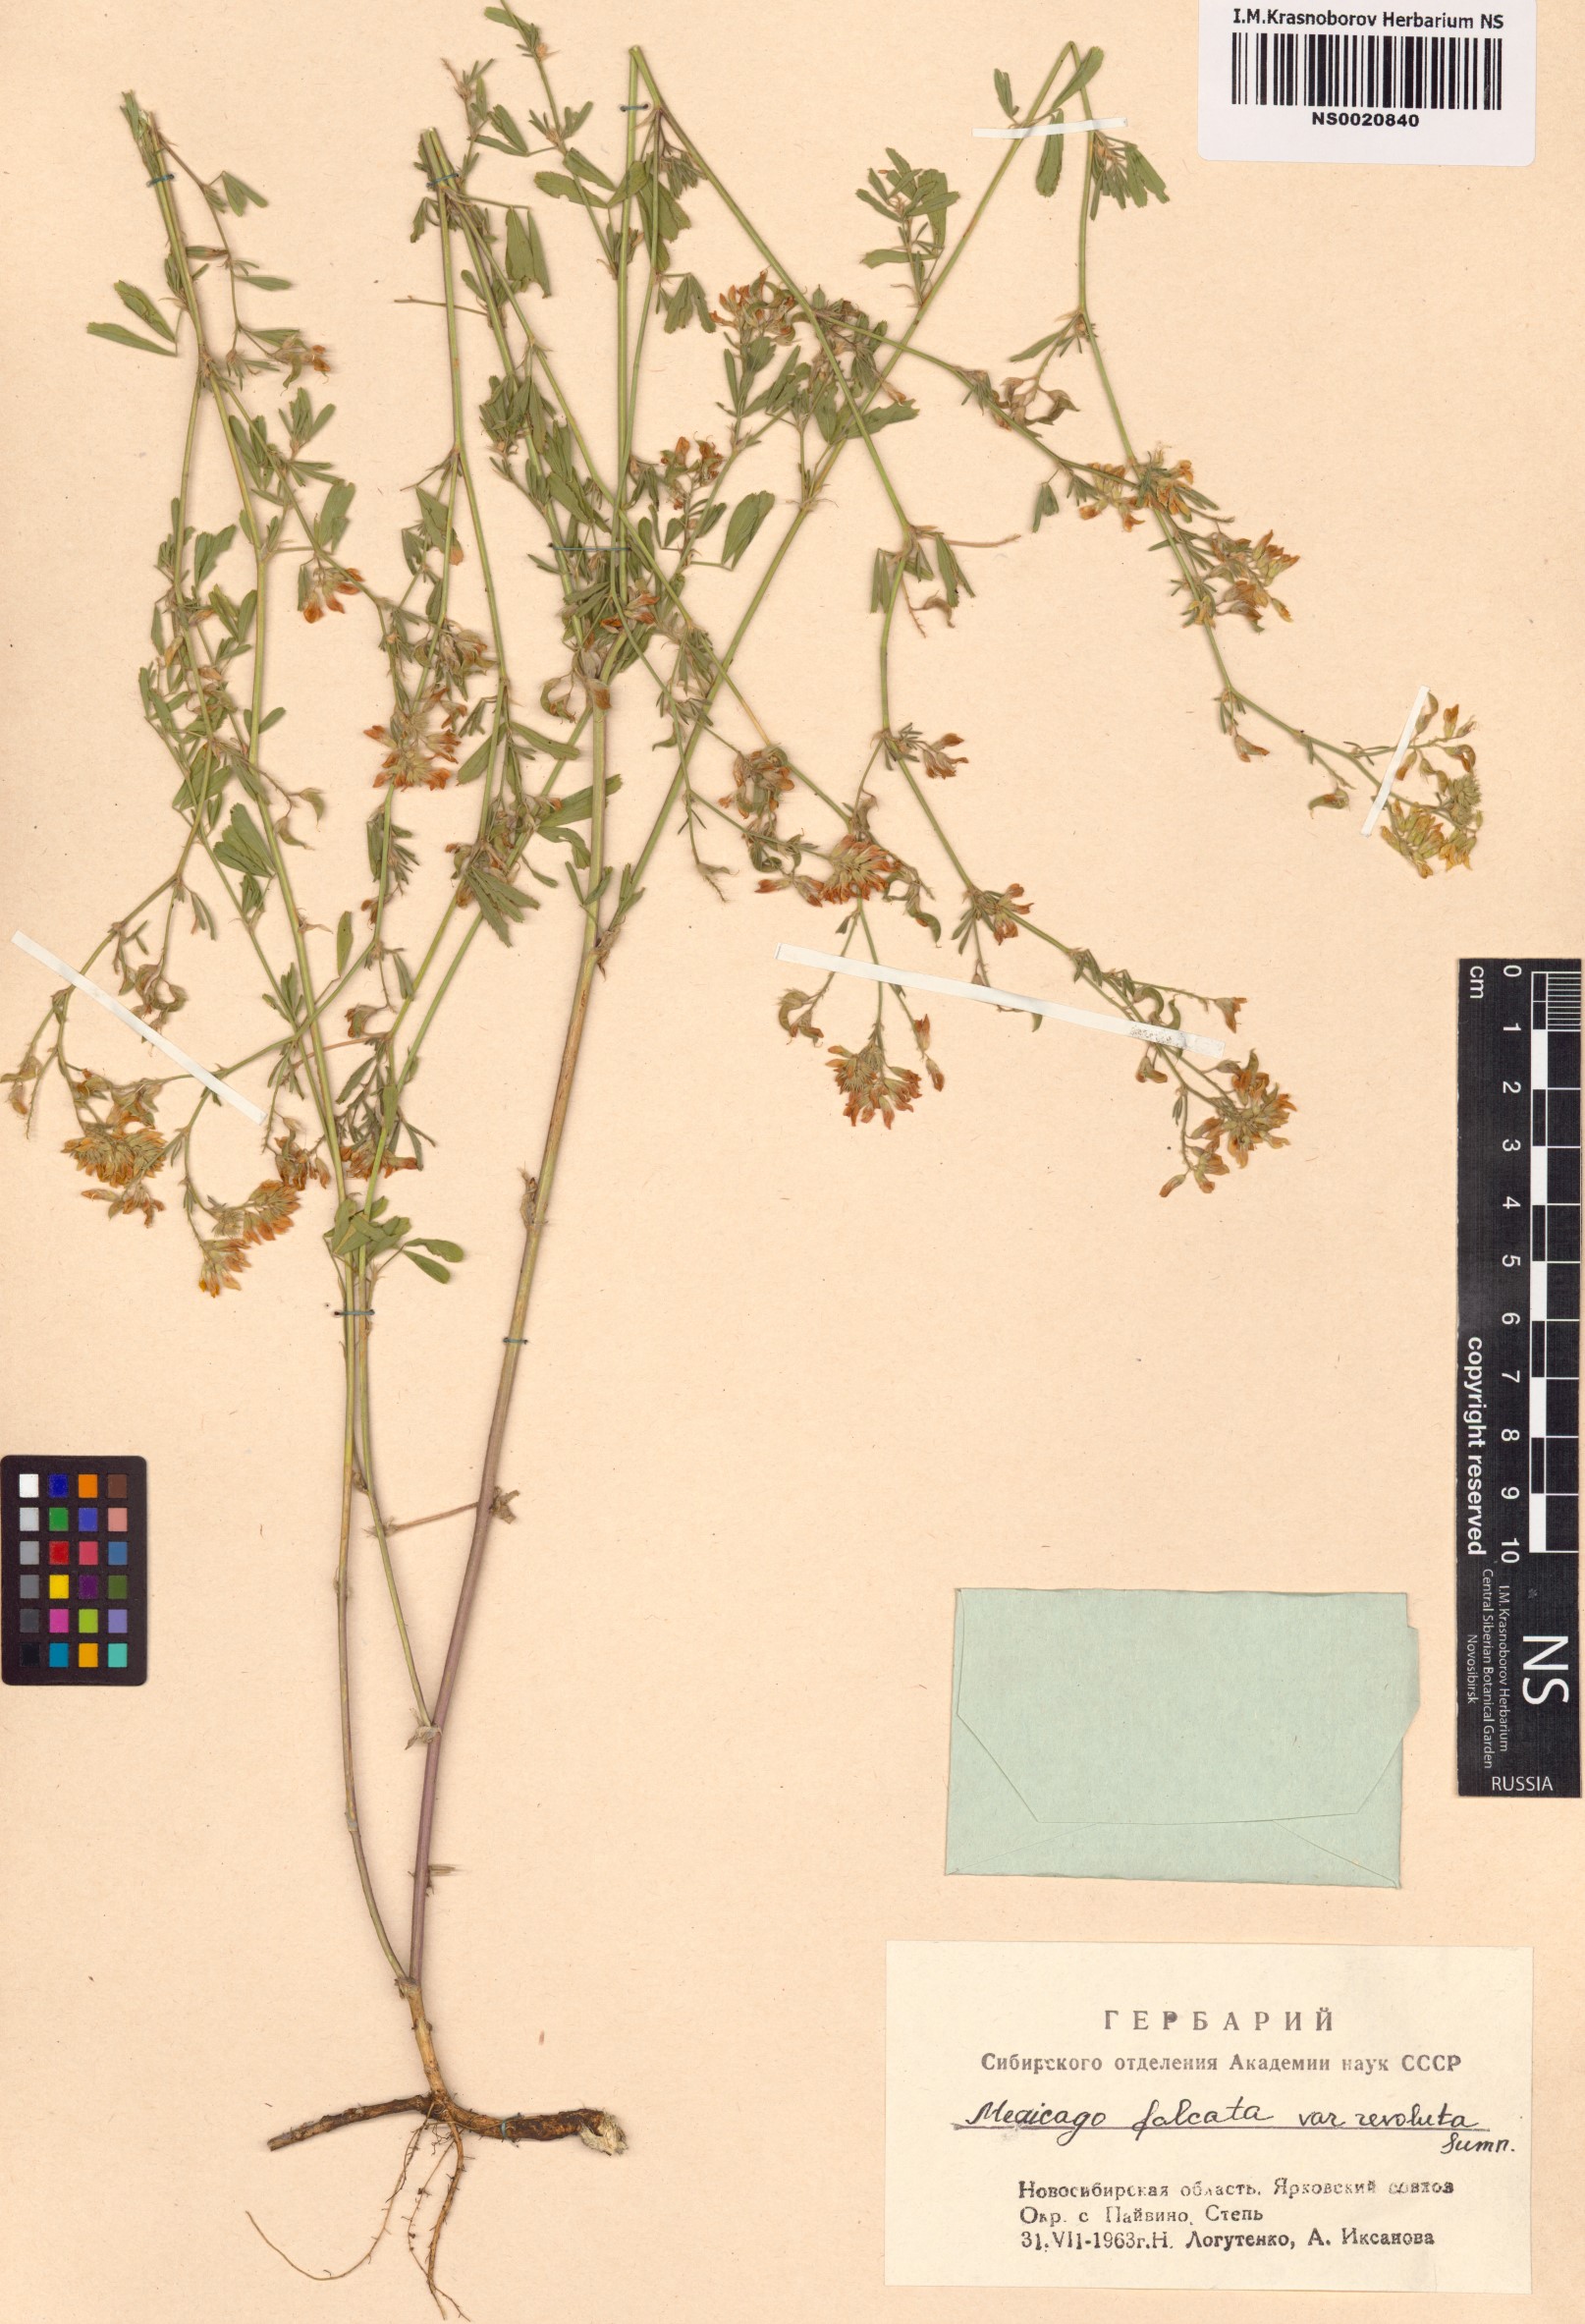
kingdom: Plantae
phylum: Tracheophyta
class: Magnoliopsida
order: Fabales
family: Fabaceae
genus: Medicago
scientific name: Medicago falcata
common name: Sickle medick
